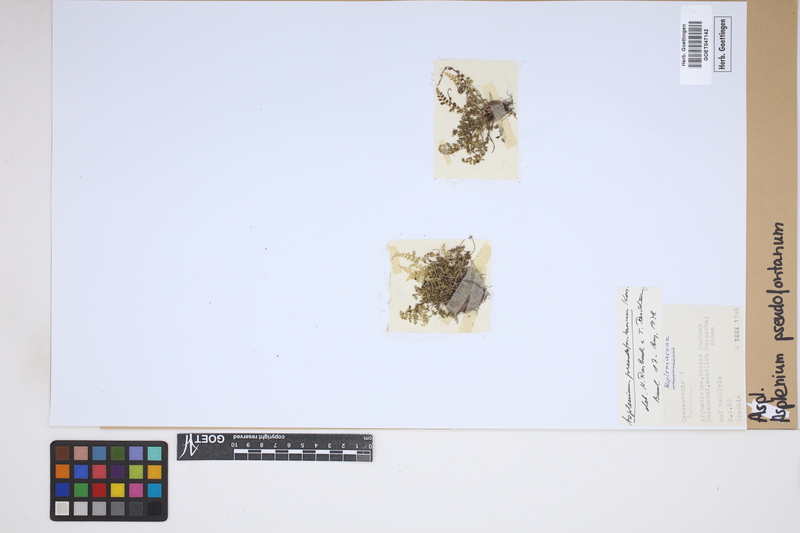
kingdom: Plantae
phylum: Tracheophyta
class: Polypodiopsida
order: Polypodiales
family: Aspleniaceae
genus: Asplenium
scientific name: Asplenium fontanum
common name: Fountain spleenwort
